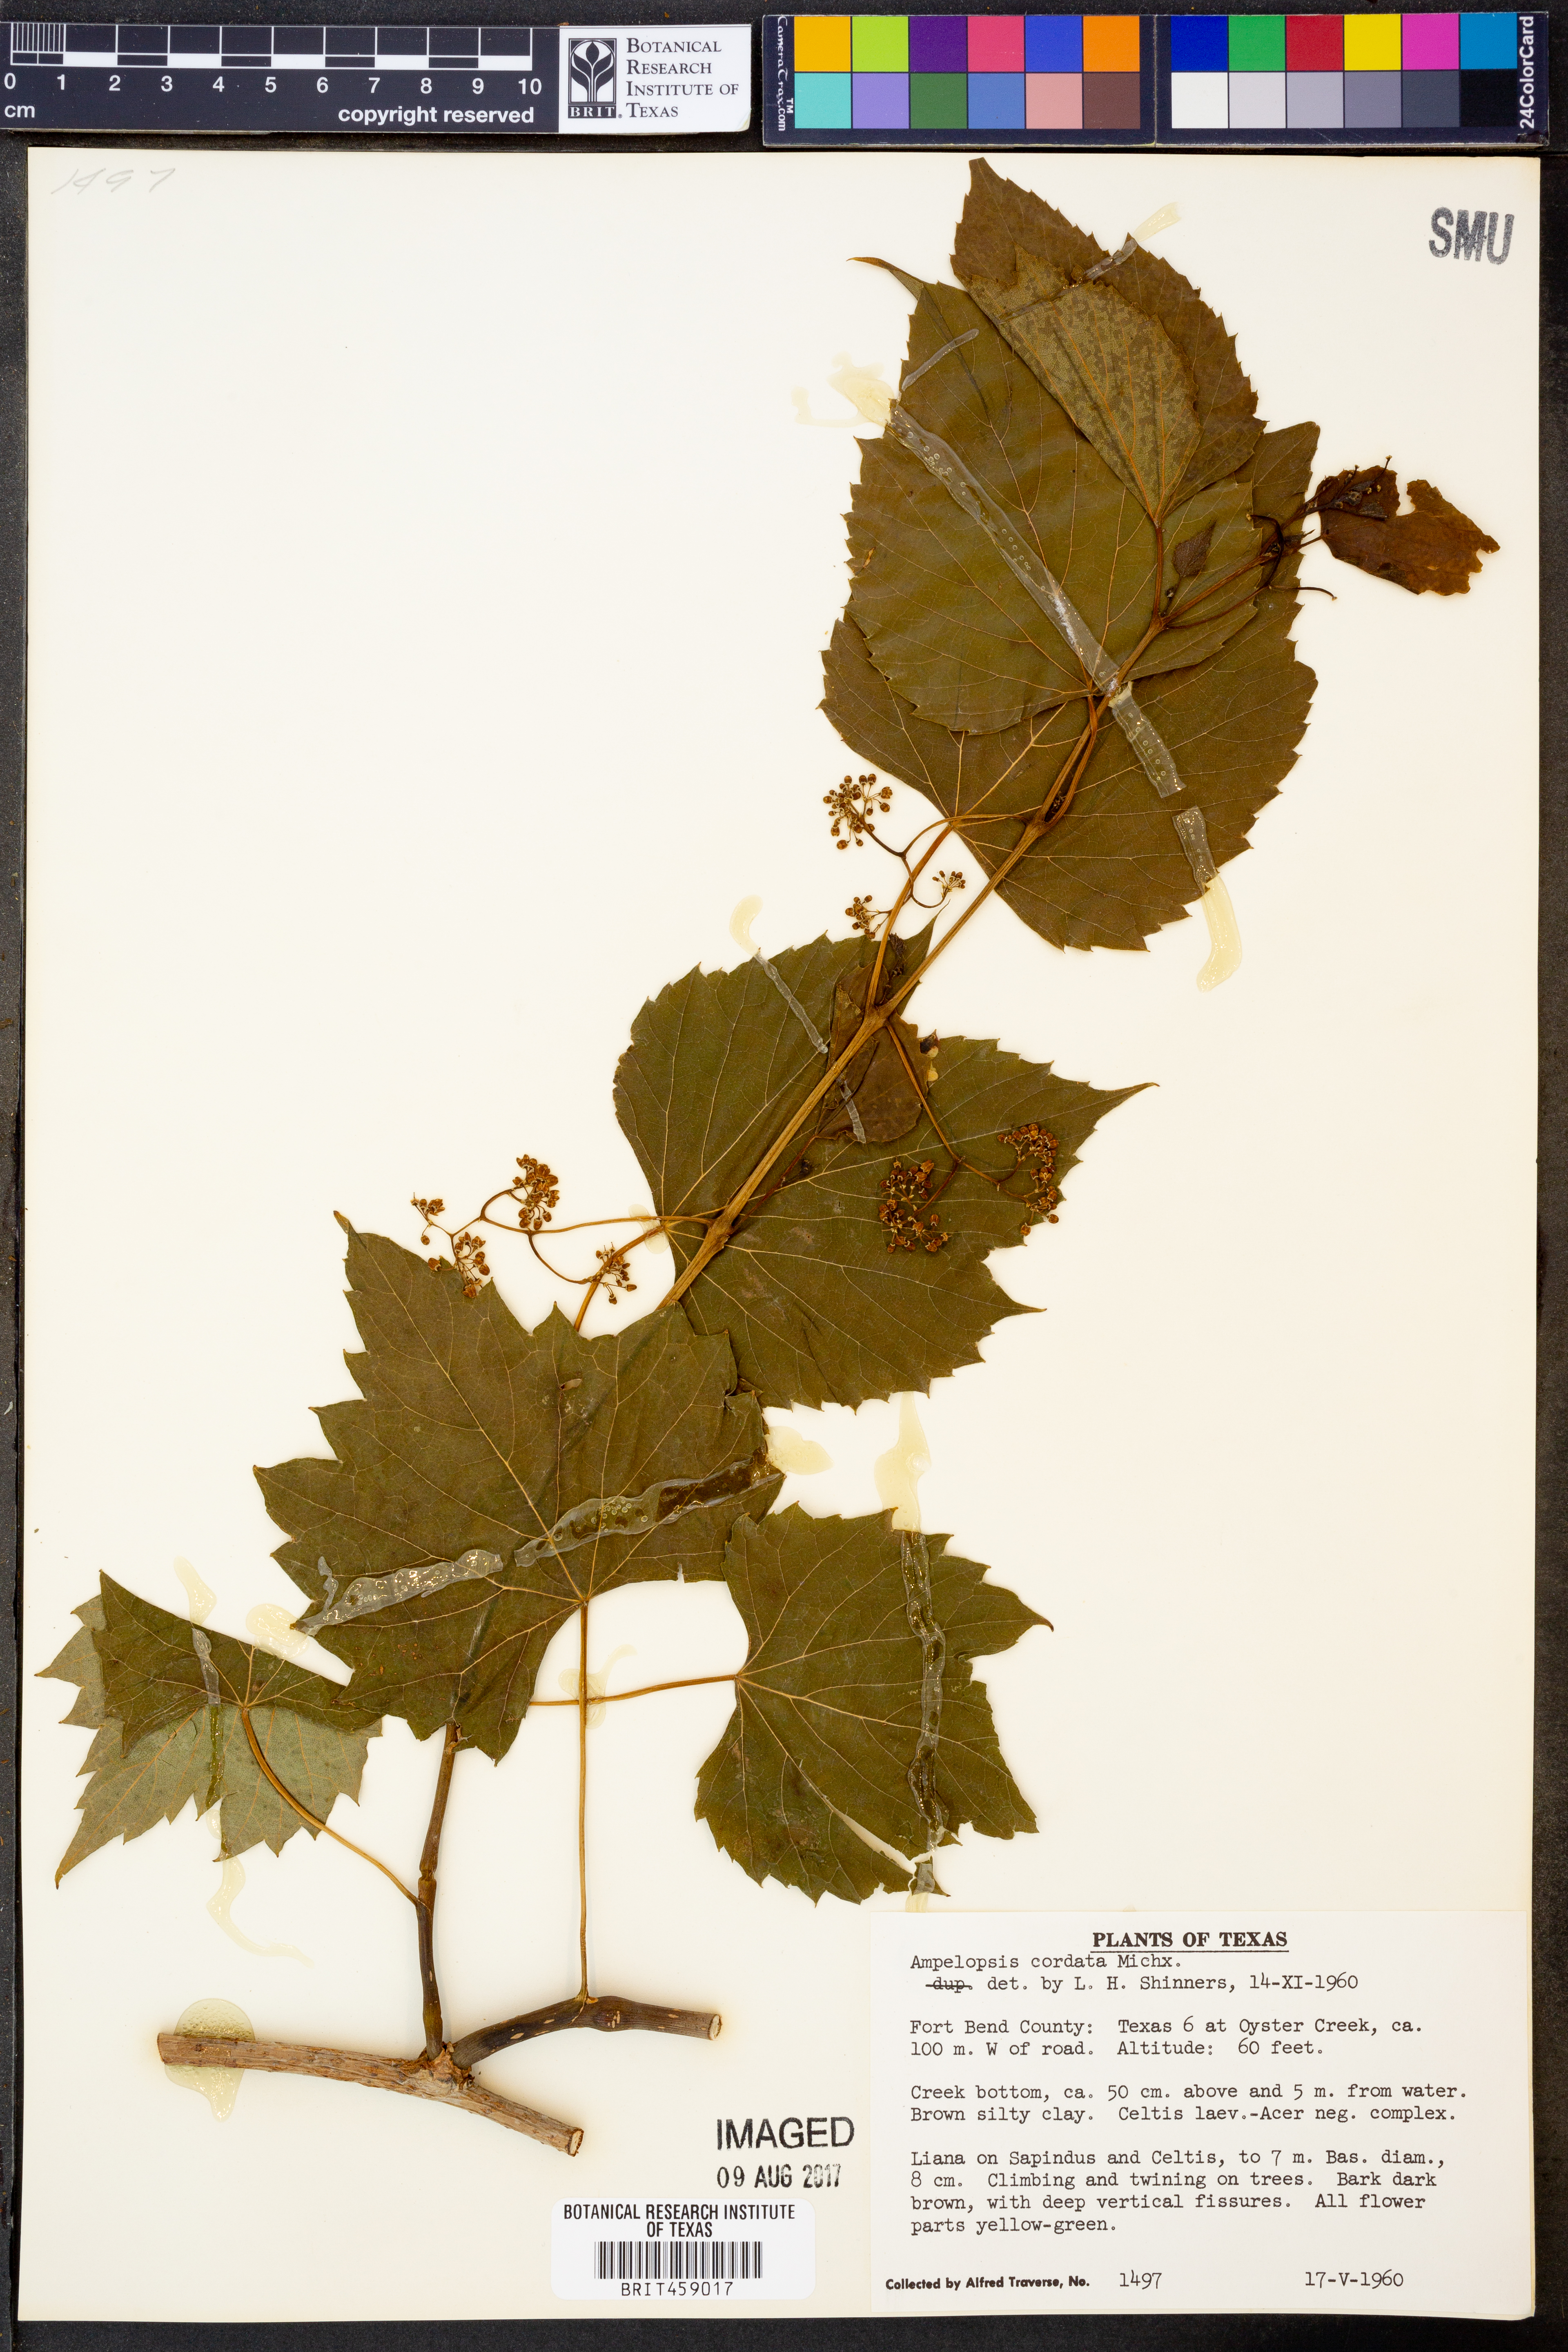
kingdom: Plantae
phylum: Tracheophyta
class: Magnoliopsida
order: Vitales
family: Vitaceae
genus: Ampelopsis
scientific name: Ampelopsis cordata
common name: Heart-leaf ampelopsis
